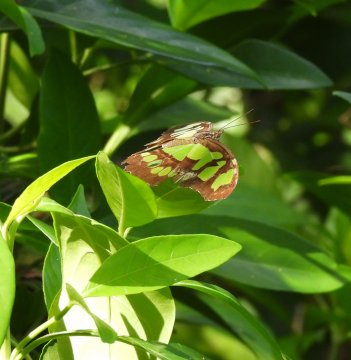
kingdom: Animalia
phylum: Arthropoda
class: Insecta
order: Lepidoptera
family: Nymphalidae
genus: Siproeta
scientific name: Siproeta stelenes
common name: Malachite
